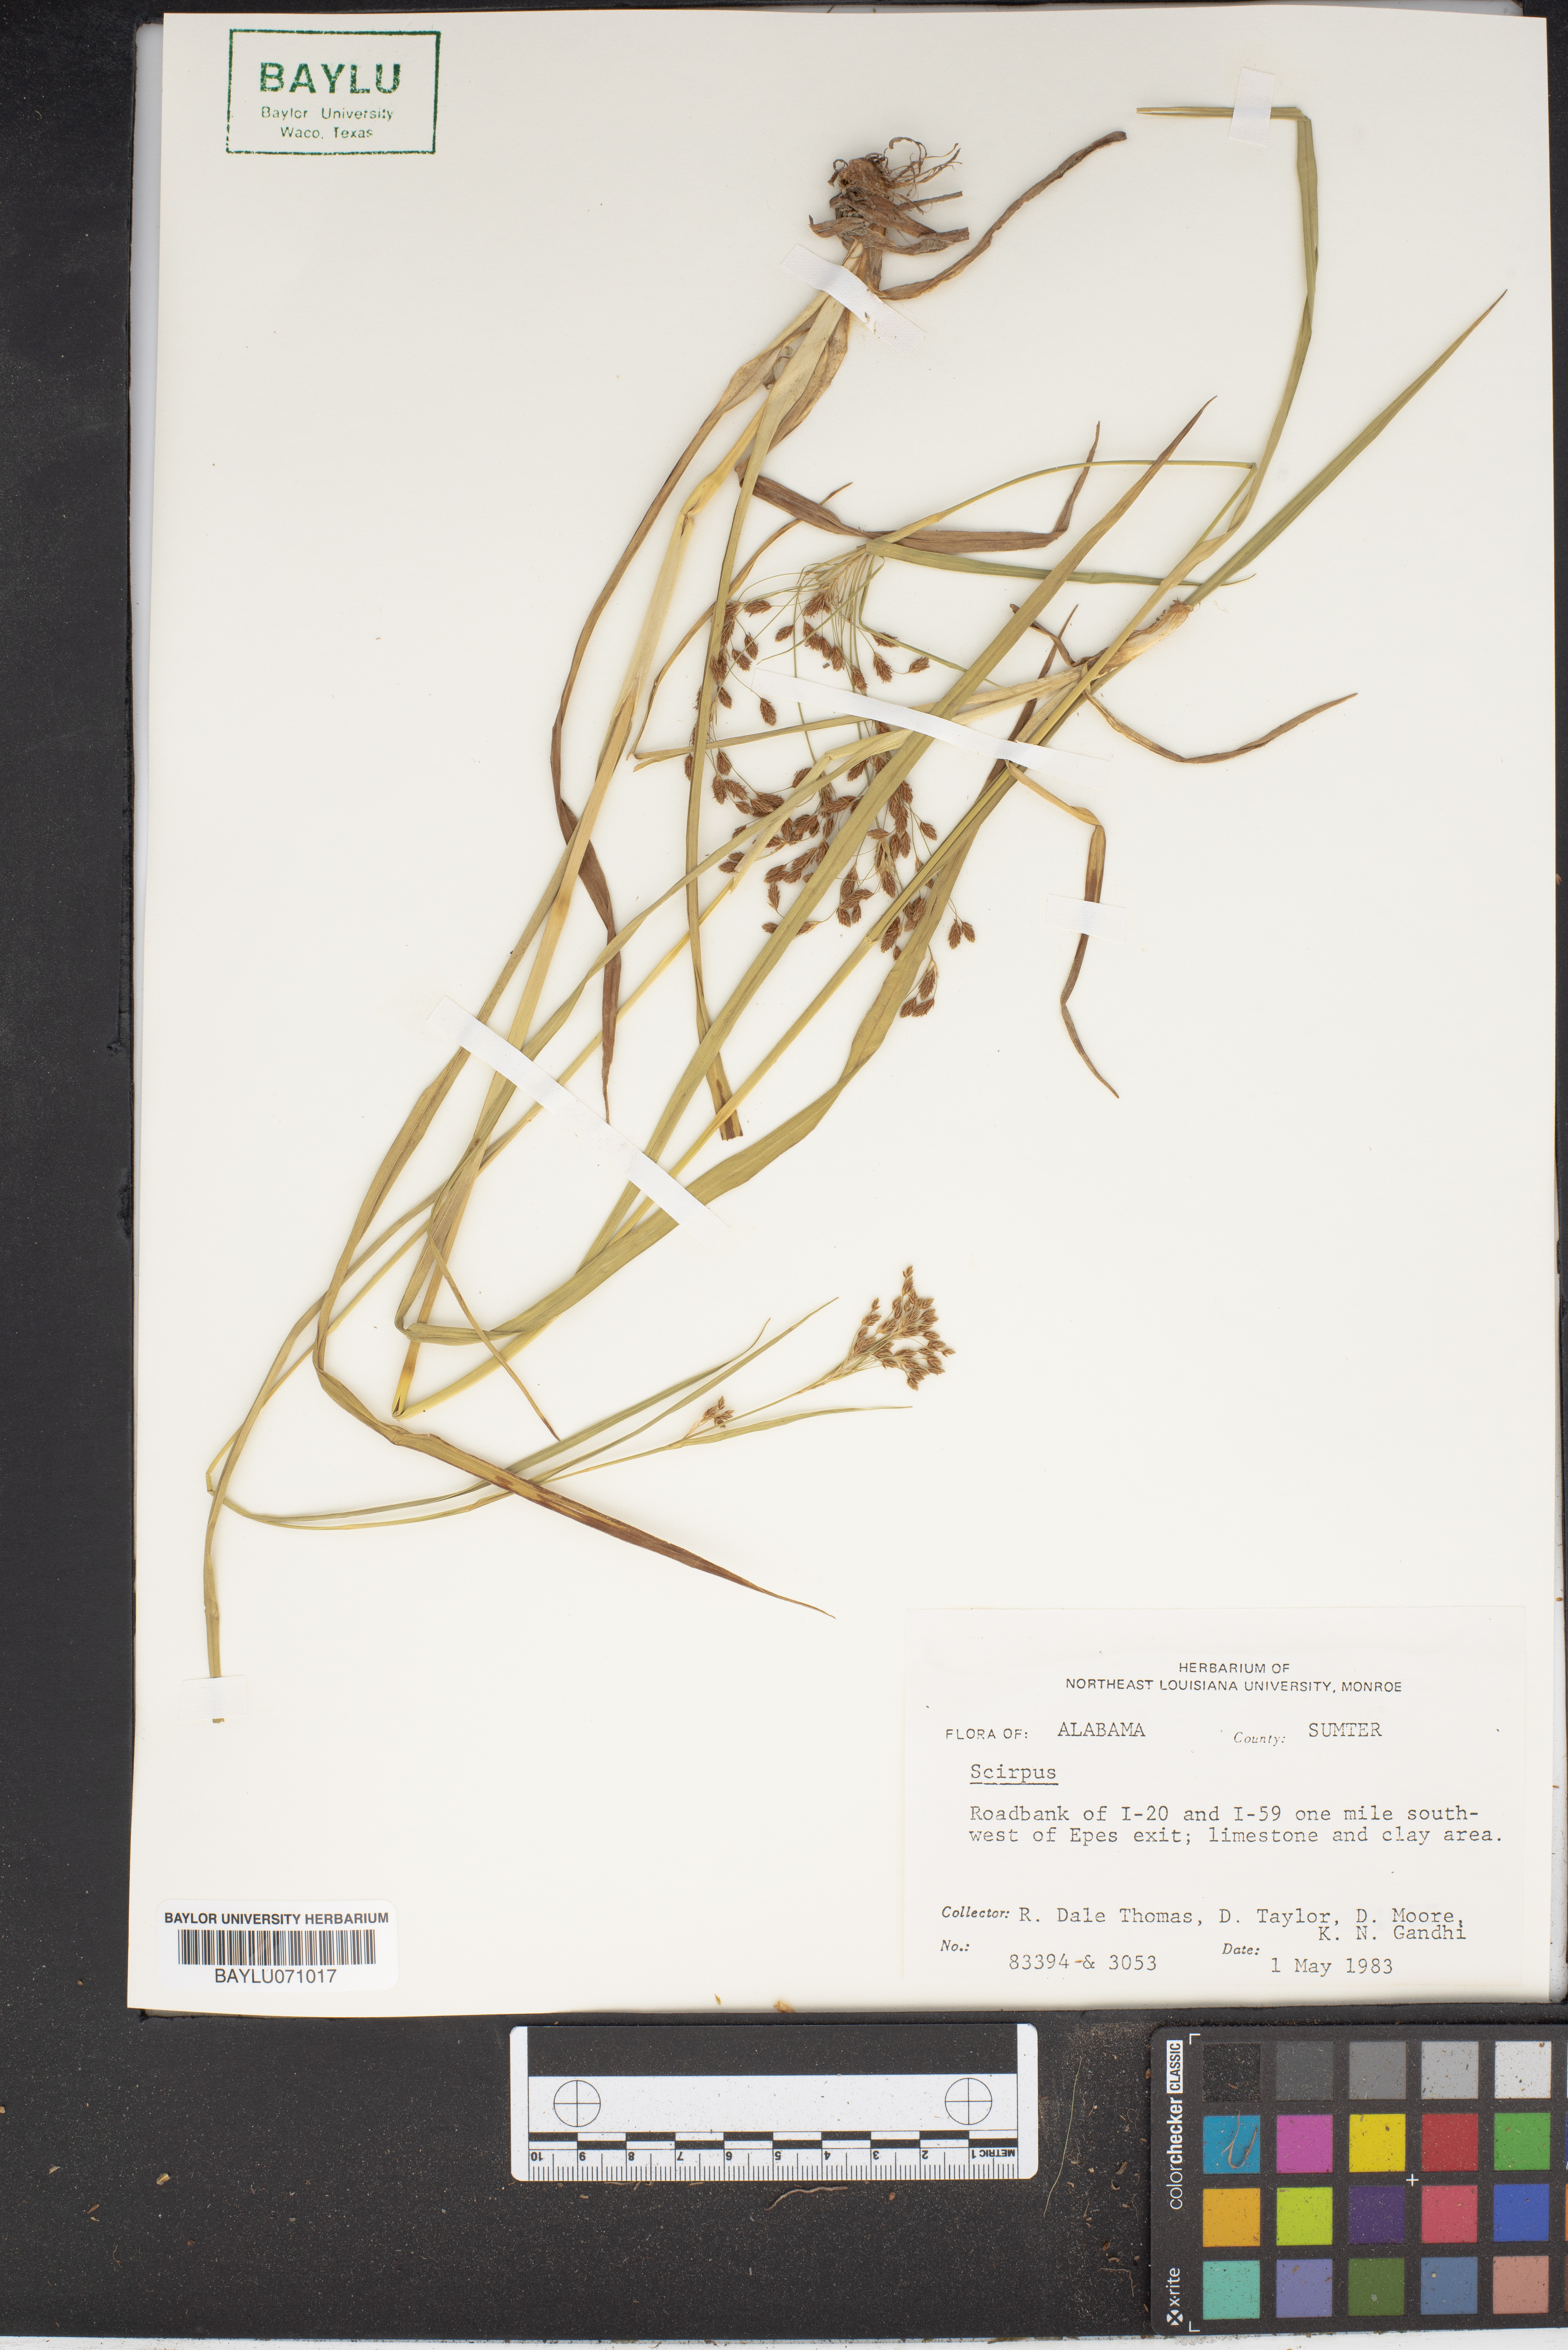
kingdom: Plantae
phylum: Tracheophyta
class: Liliopsida
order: Poales
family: Cyperaceae
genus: Scirpus
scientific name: Scirpus
